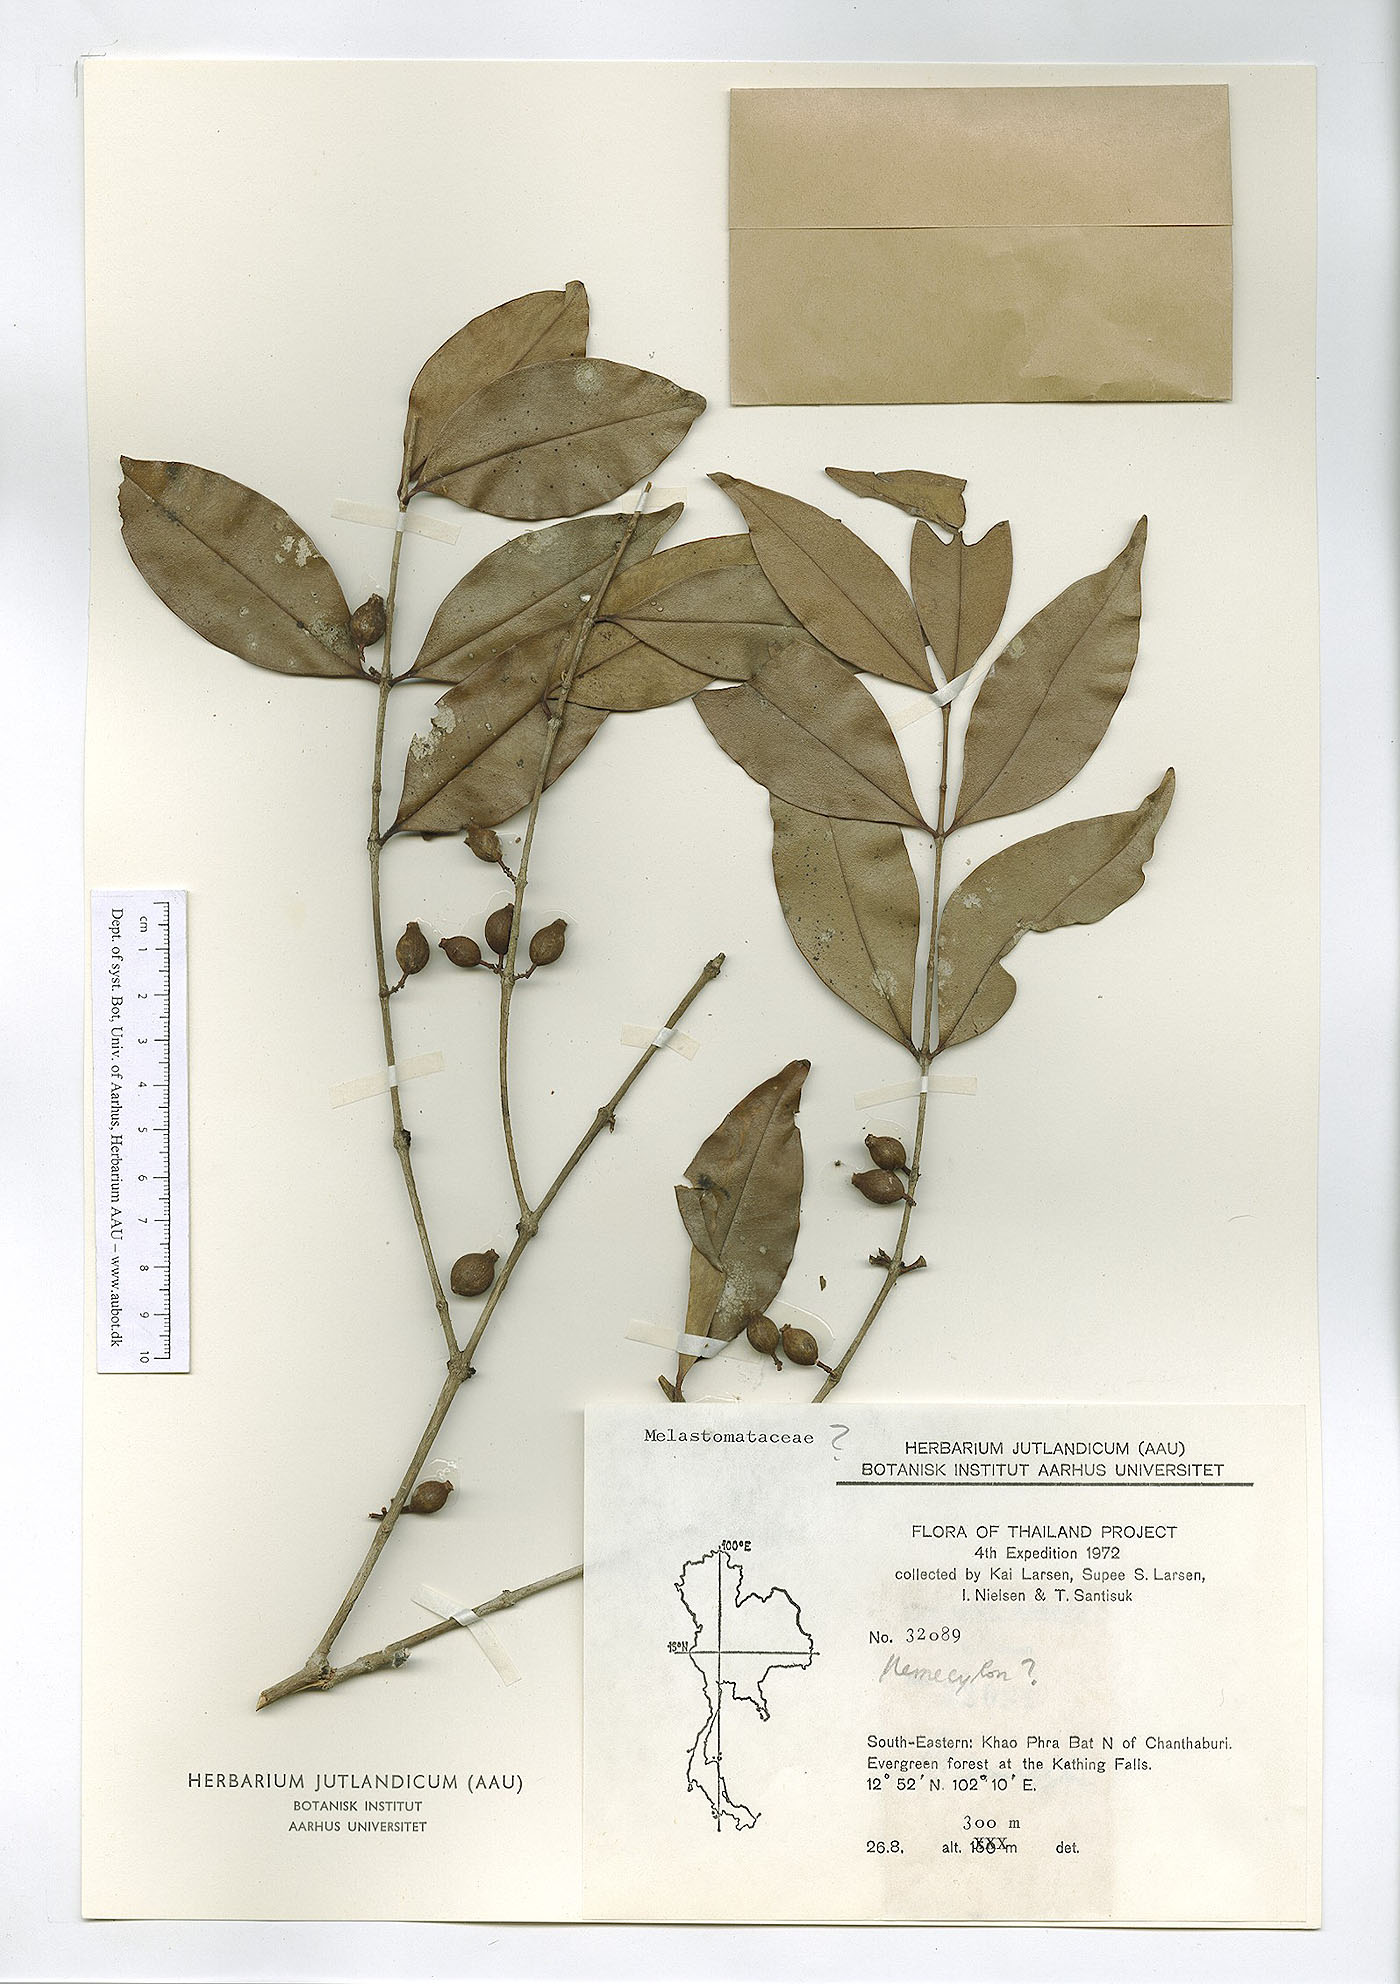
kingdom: Plantae
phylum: Tracheophyta
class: Magnoliopsida
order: Myrtales
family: Melastomataceae
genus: Memecylon
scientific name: Memecylon
